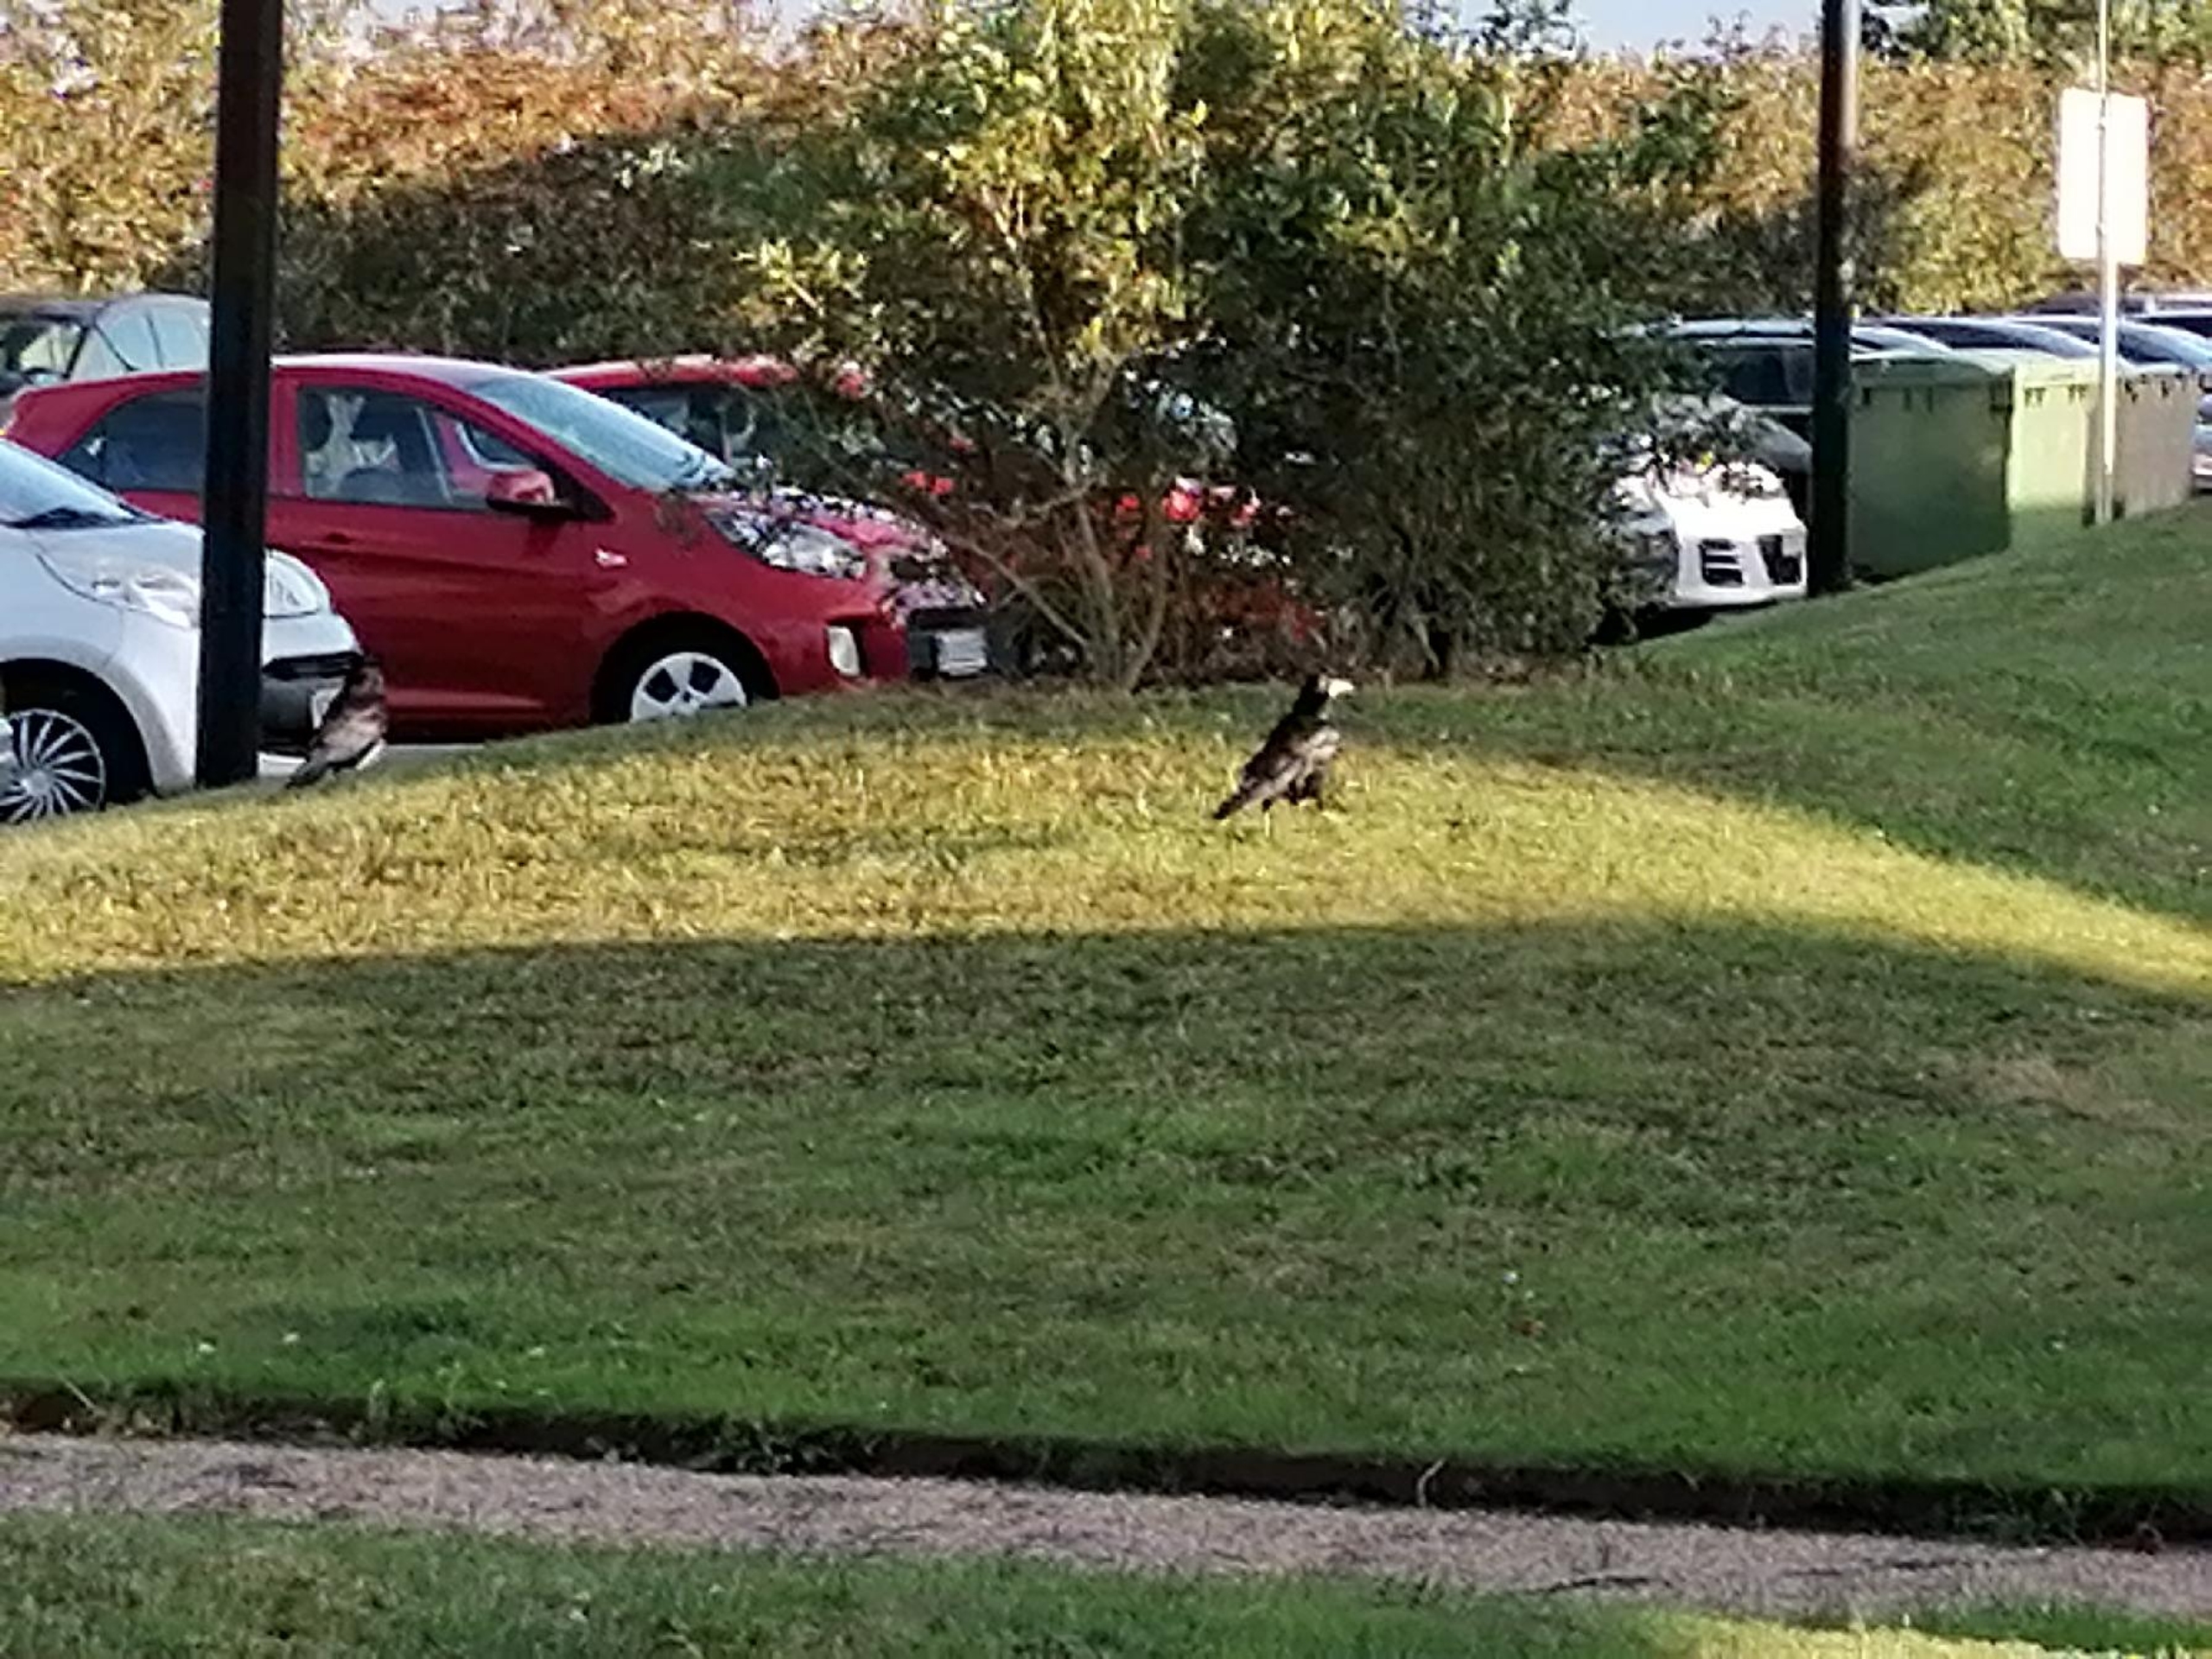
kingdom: Animalia
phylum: Chordata
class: Aves
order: Passeriformes
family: Corvidae
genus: Corvus
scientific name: Corvus frugilegus
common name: Råge
